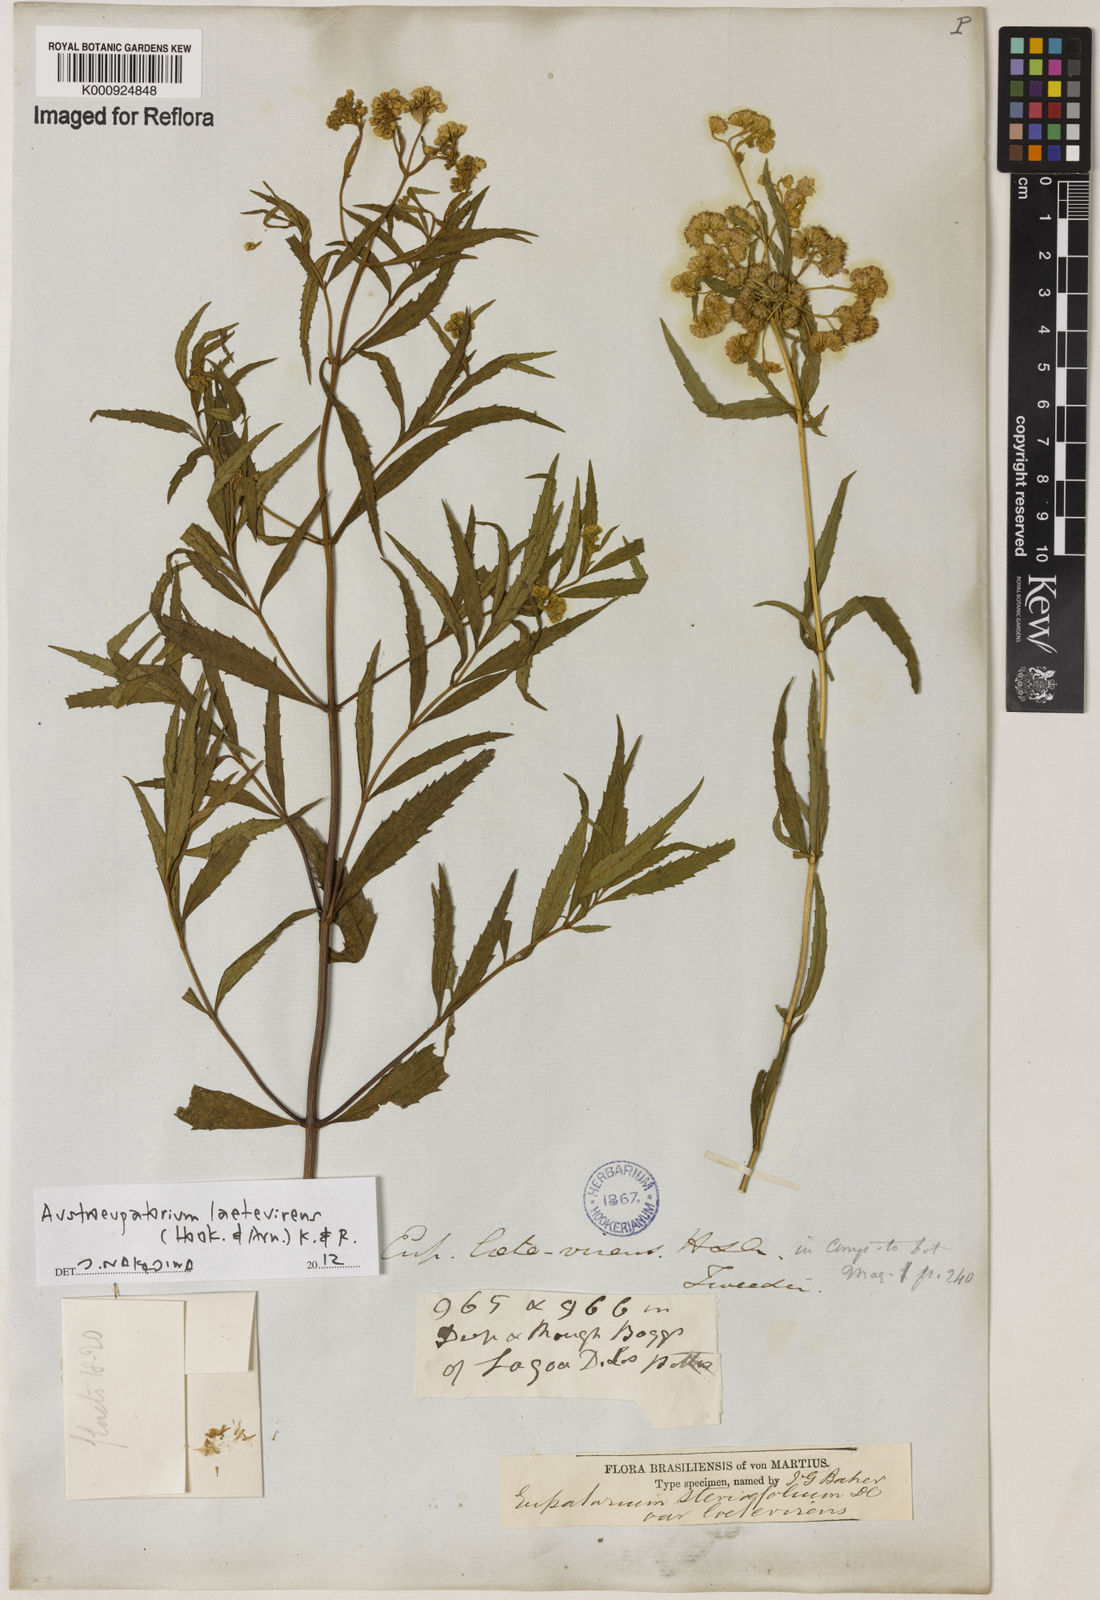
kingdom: Plantae
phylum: Tracheophyta
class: Magnoliopsida
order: Asterales
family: Asteraceae
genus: Austroeupatorium
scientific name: Austroeupatorium laetevirens
